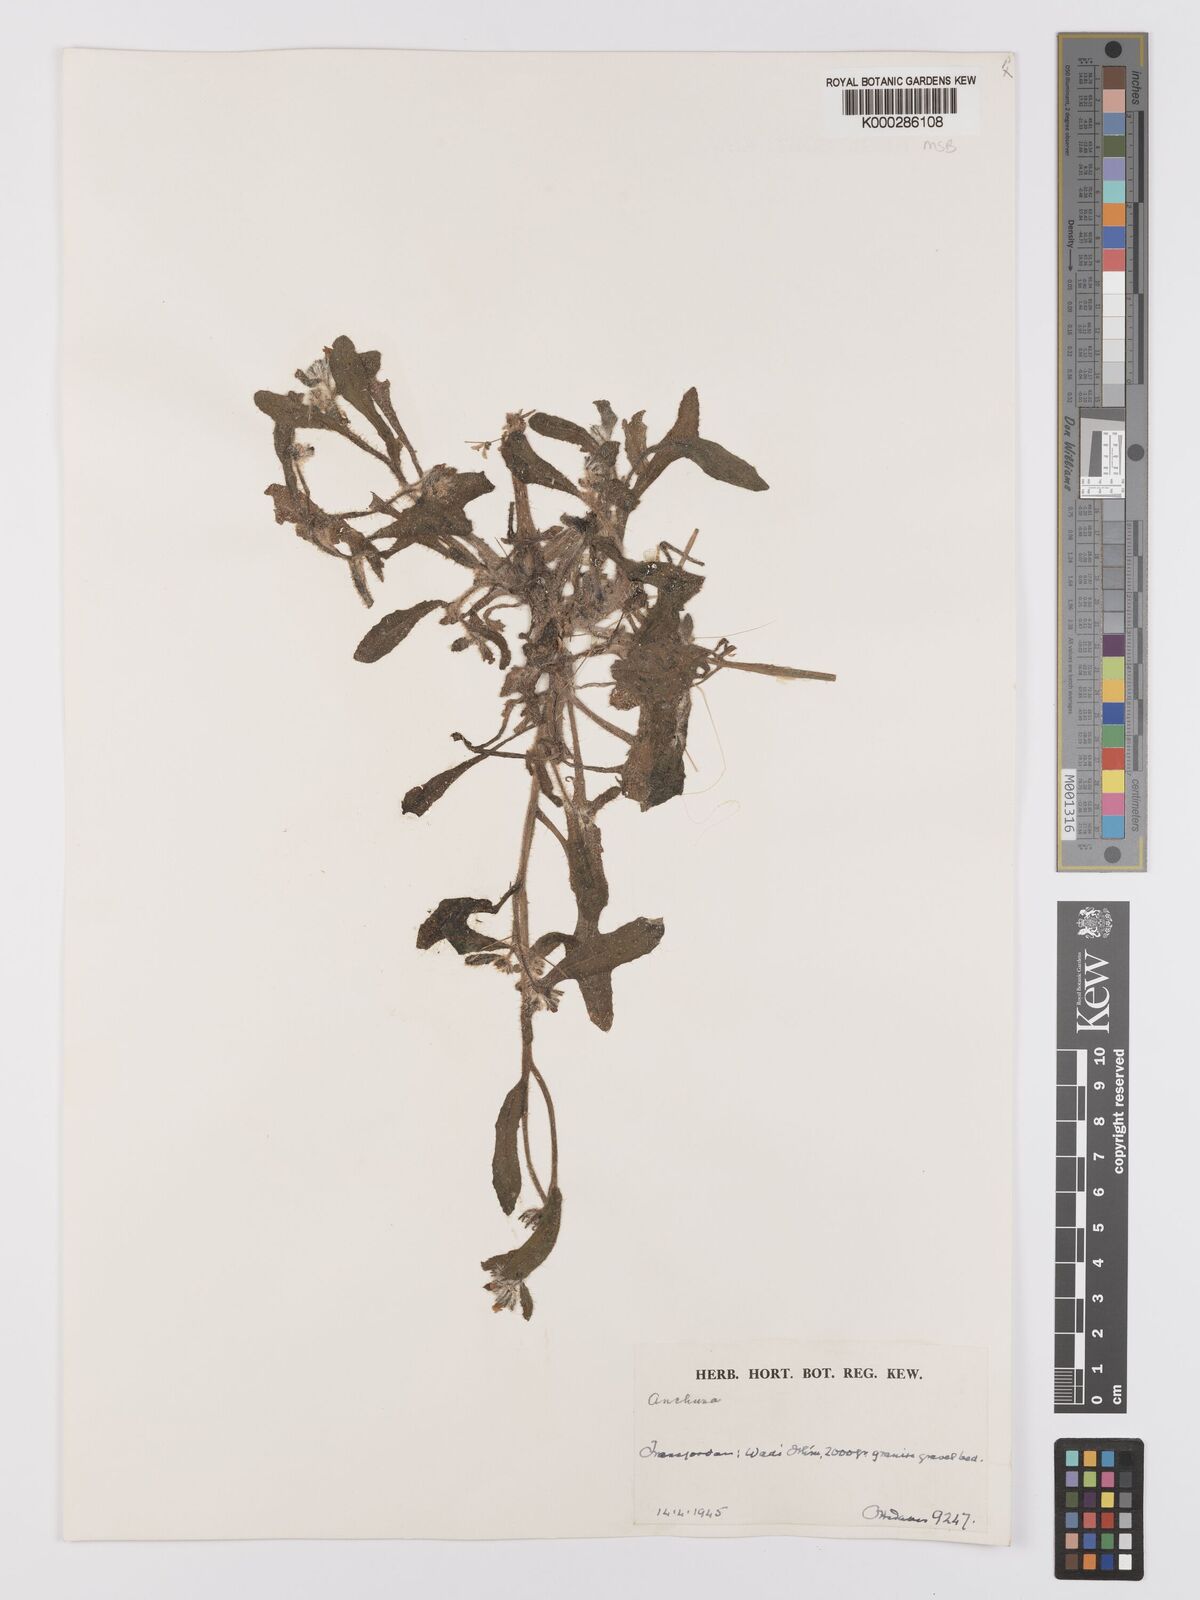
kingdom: Plantae
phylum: Tracheophyta
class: Magnoliopsida
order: Boraginales
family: Boraginaceae
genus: Anchusa
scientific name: Anchusa
